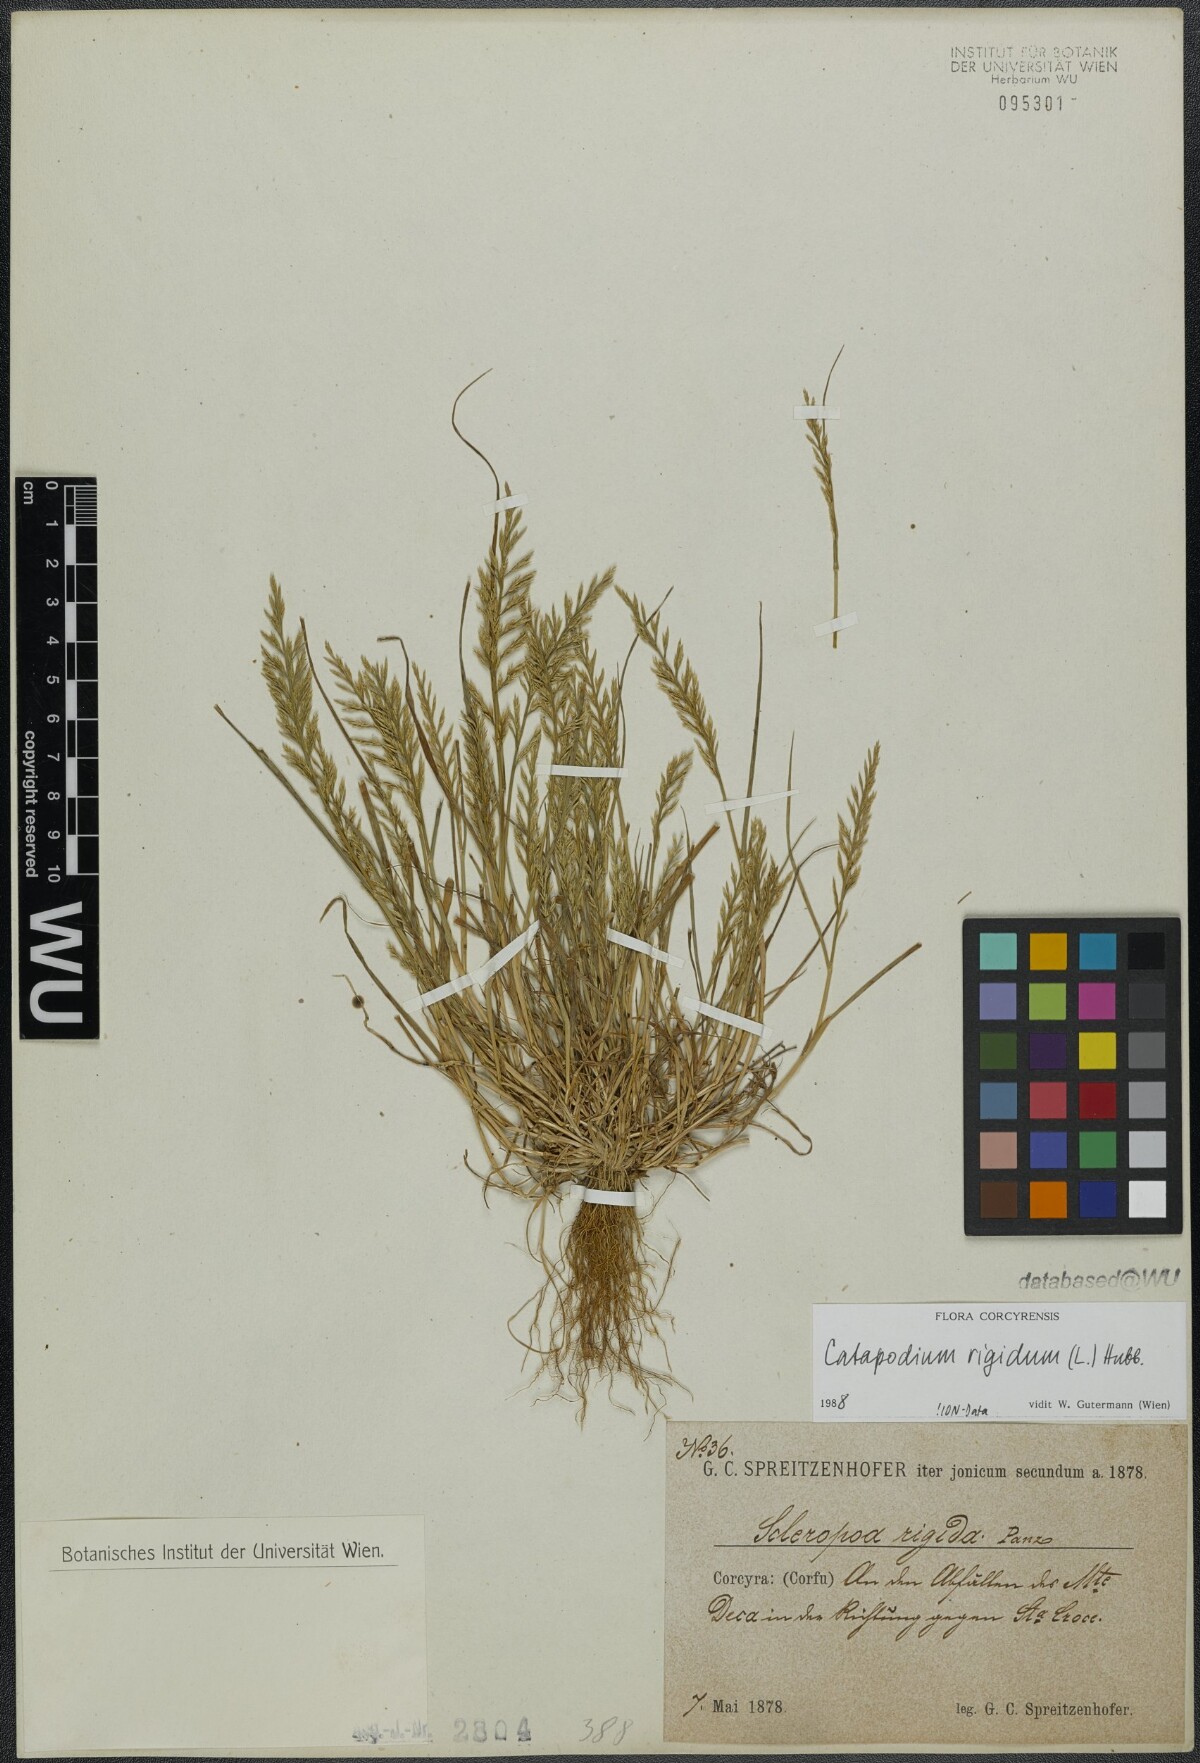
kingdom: Plantae
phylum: Tracheophyta
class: Liliopsida
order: Poales
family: Poaceae
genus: Catapodium
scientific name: Catapodium rigidum
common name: Fern-grass
